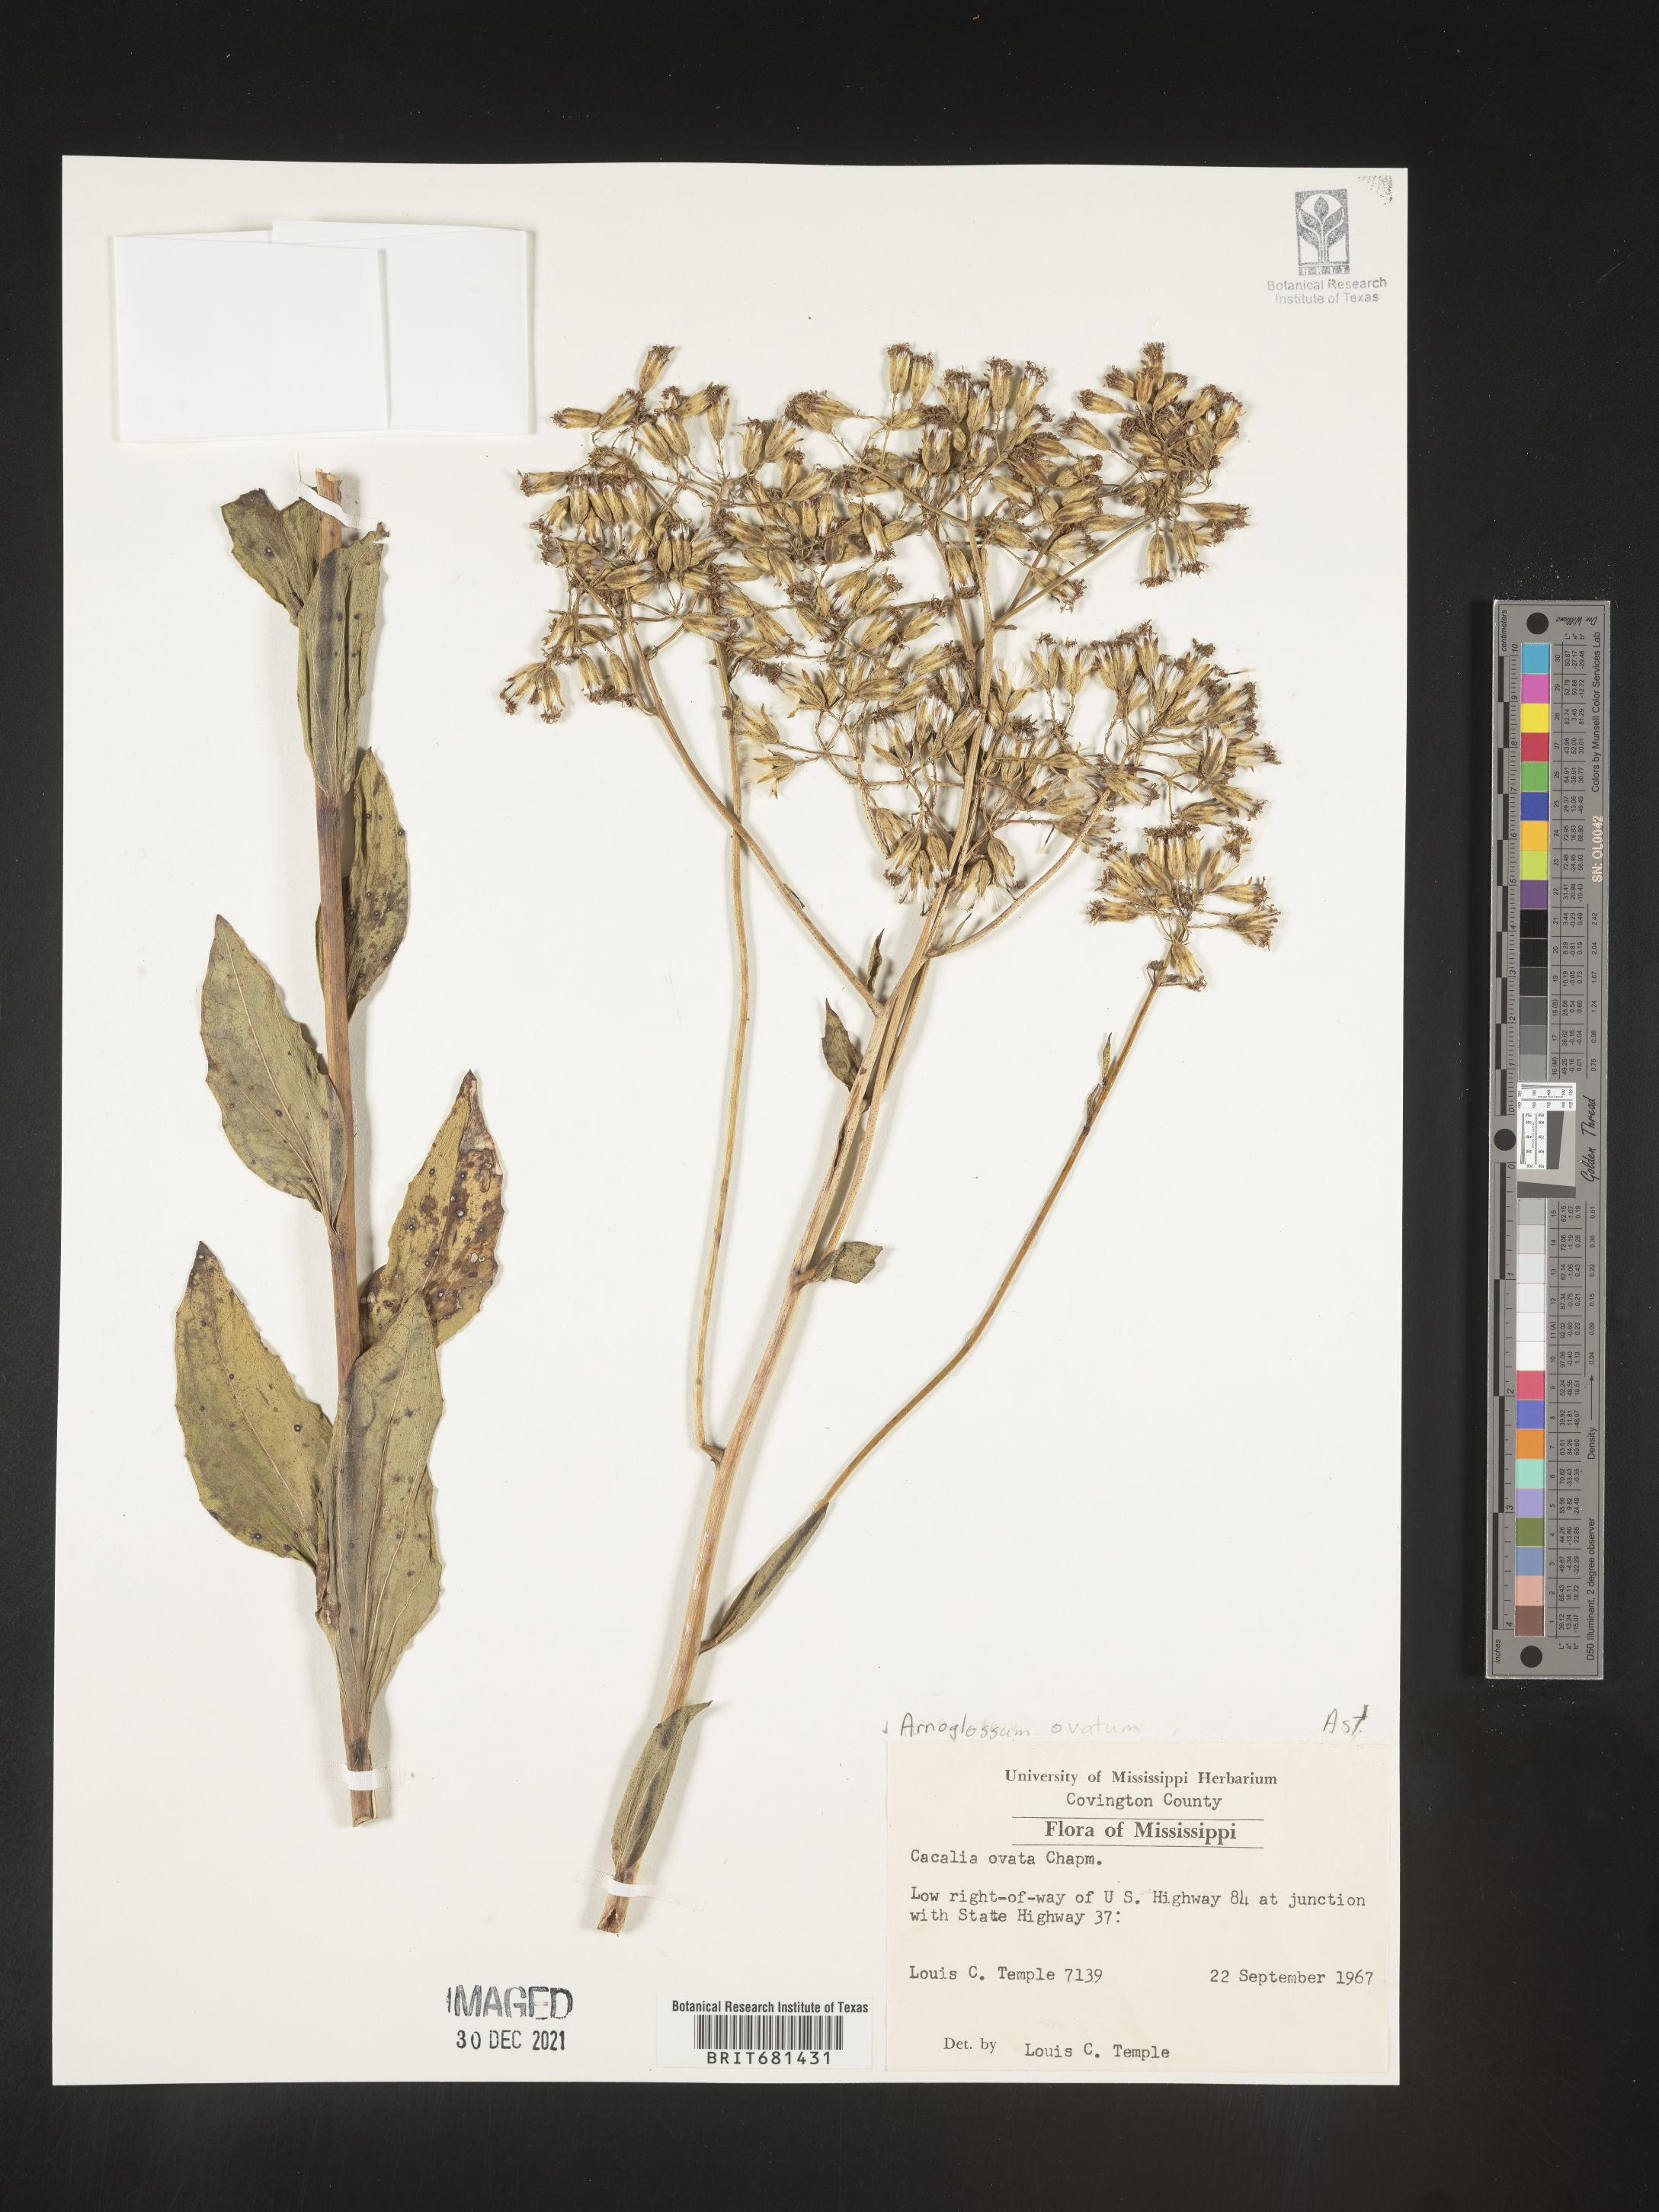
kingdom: Plantae
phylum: Tracheophyta
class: Magnoliopsida
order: Asterales
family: Asteraceae
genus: Arnoglossum
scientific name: Arnoglossum ovatum
